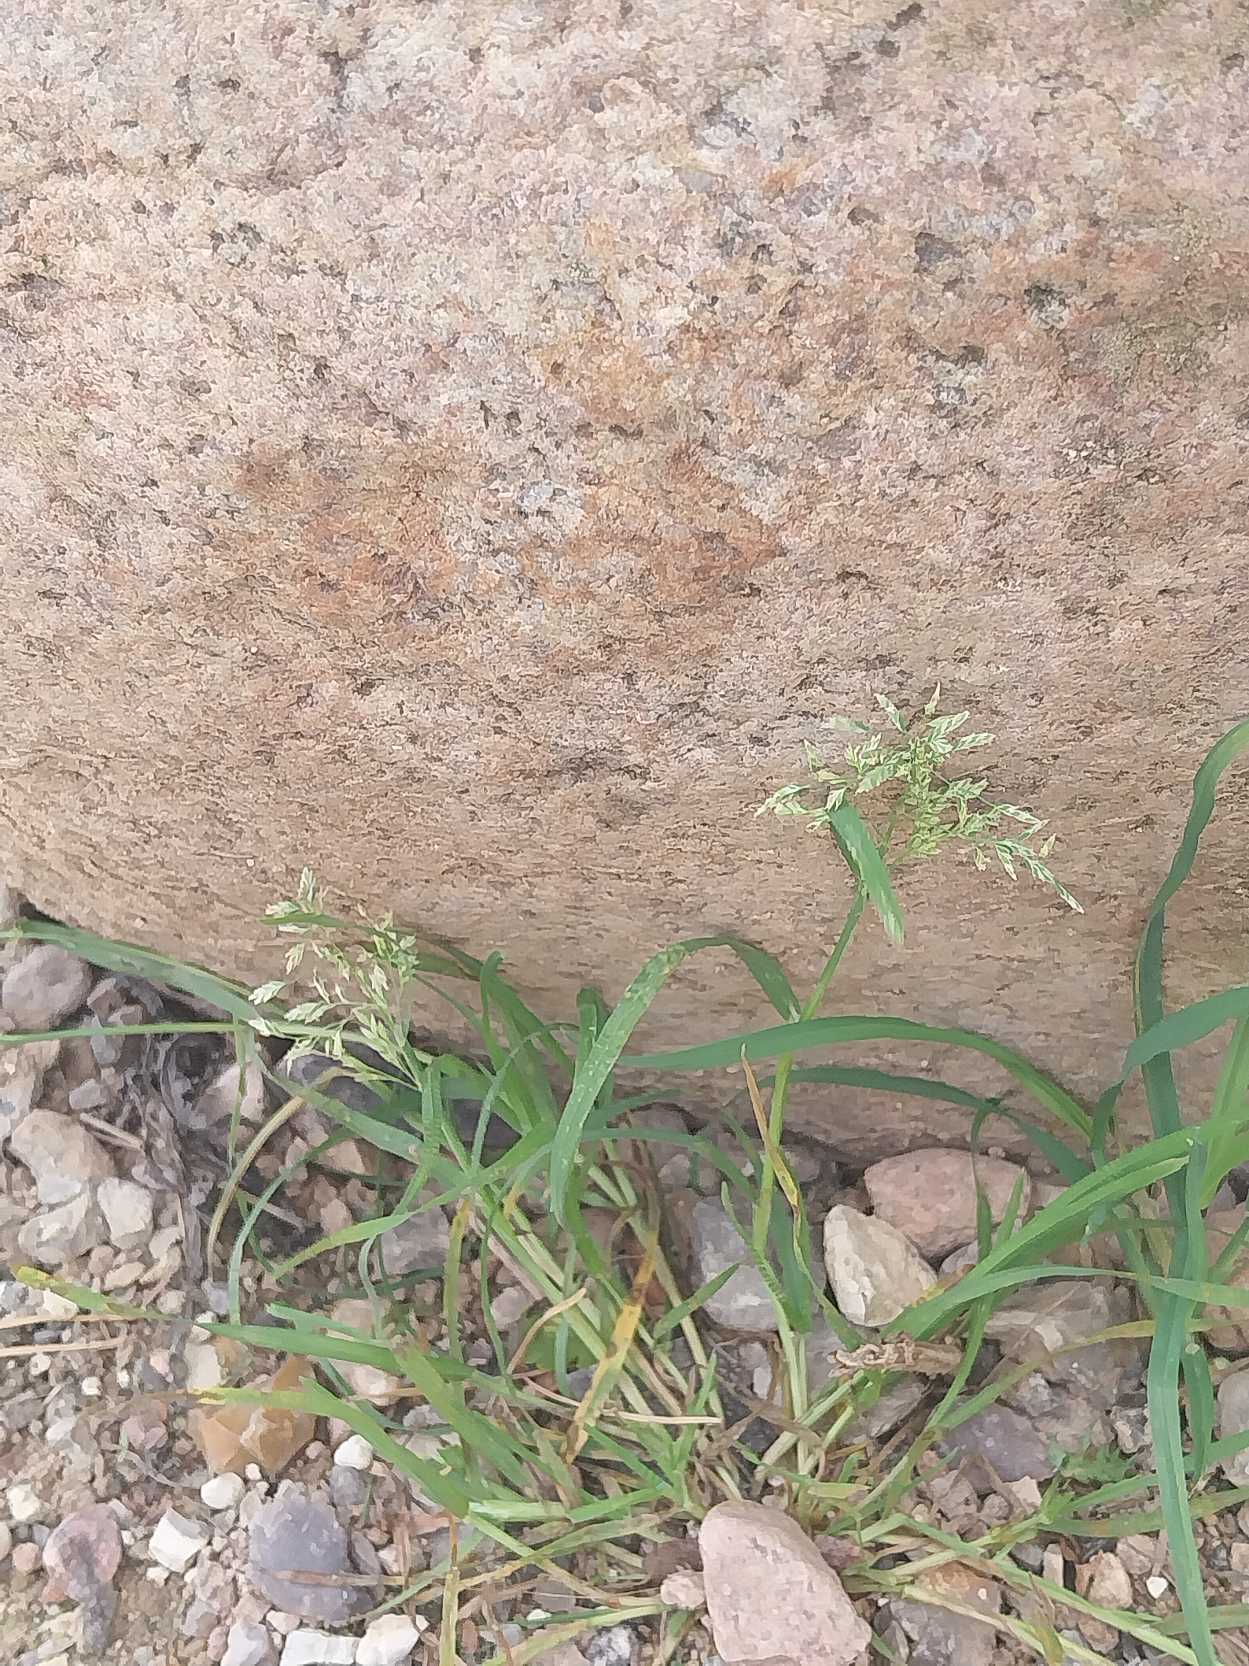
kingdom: Plantae
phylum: Tracheophyta
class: Liliopsida
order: Poales
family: Poaceae
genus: Poa
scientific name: Poa annua
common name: Enårig rapgræs
